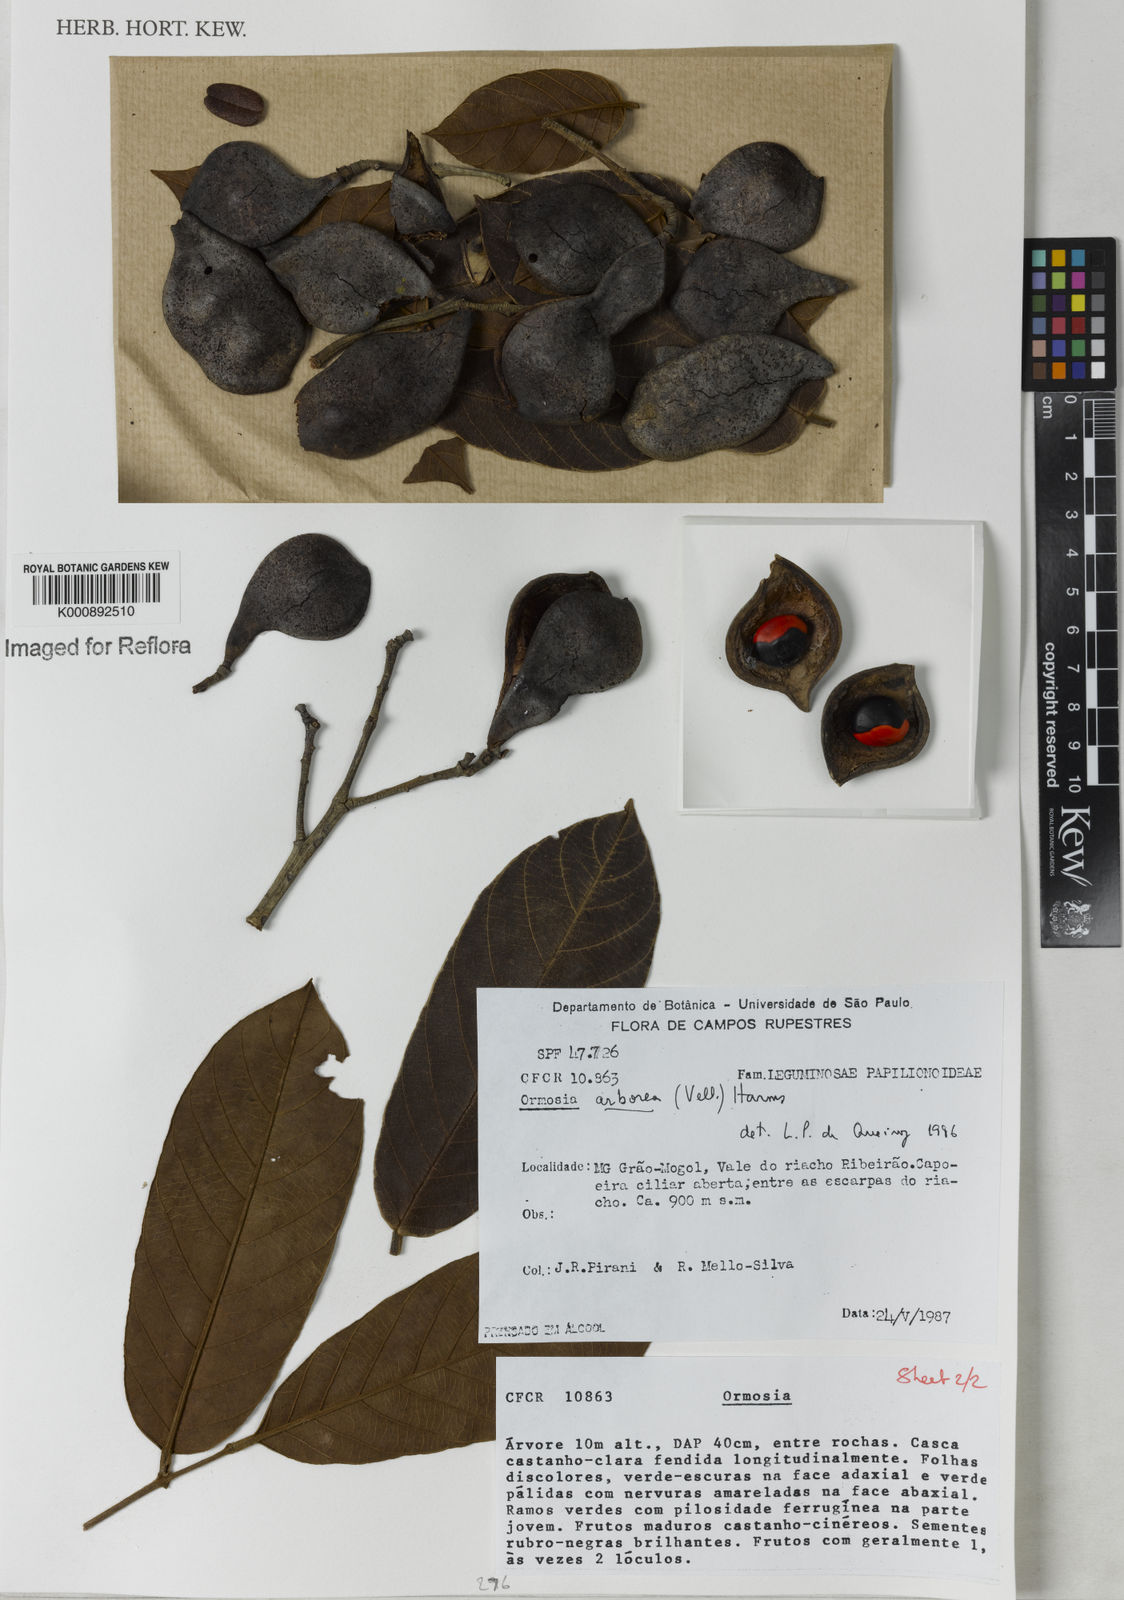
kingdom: Plantae
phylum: Tracheophyta
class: Magnoliopsida
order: Fabales
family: Fabaceae
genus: Ormosia
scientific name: Ormosia arborea
